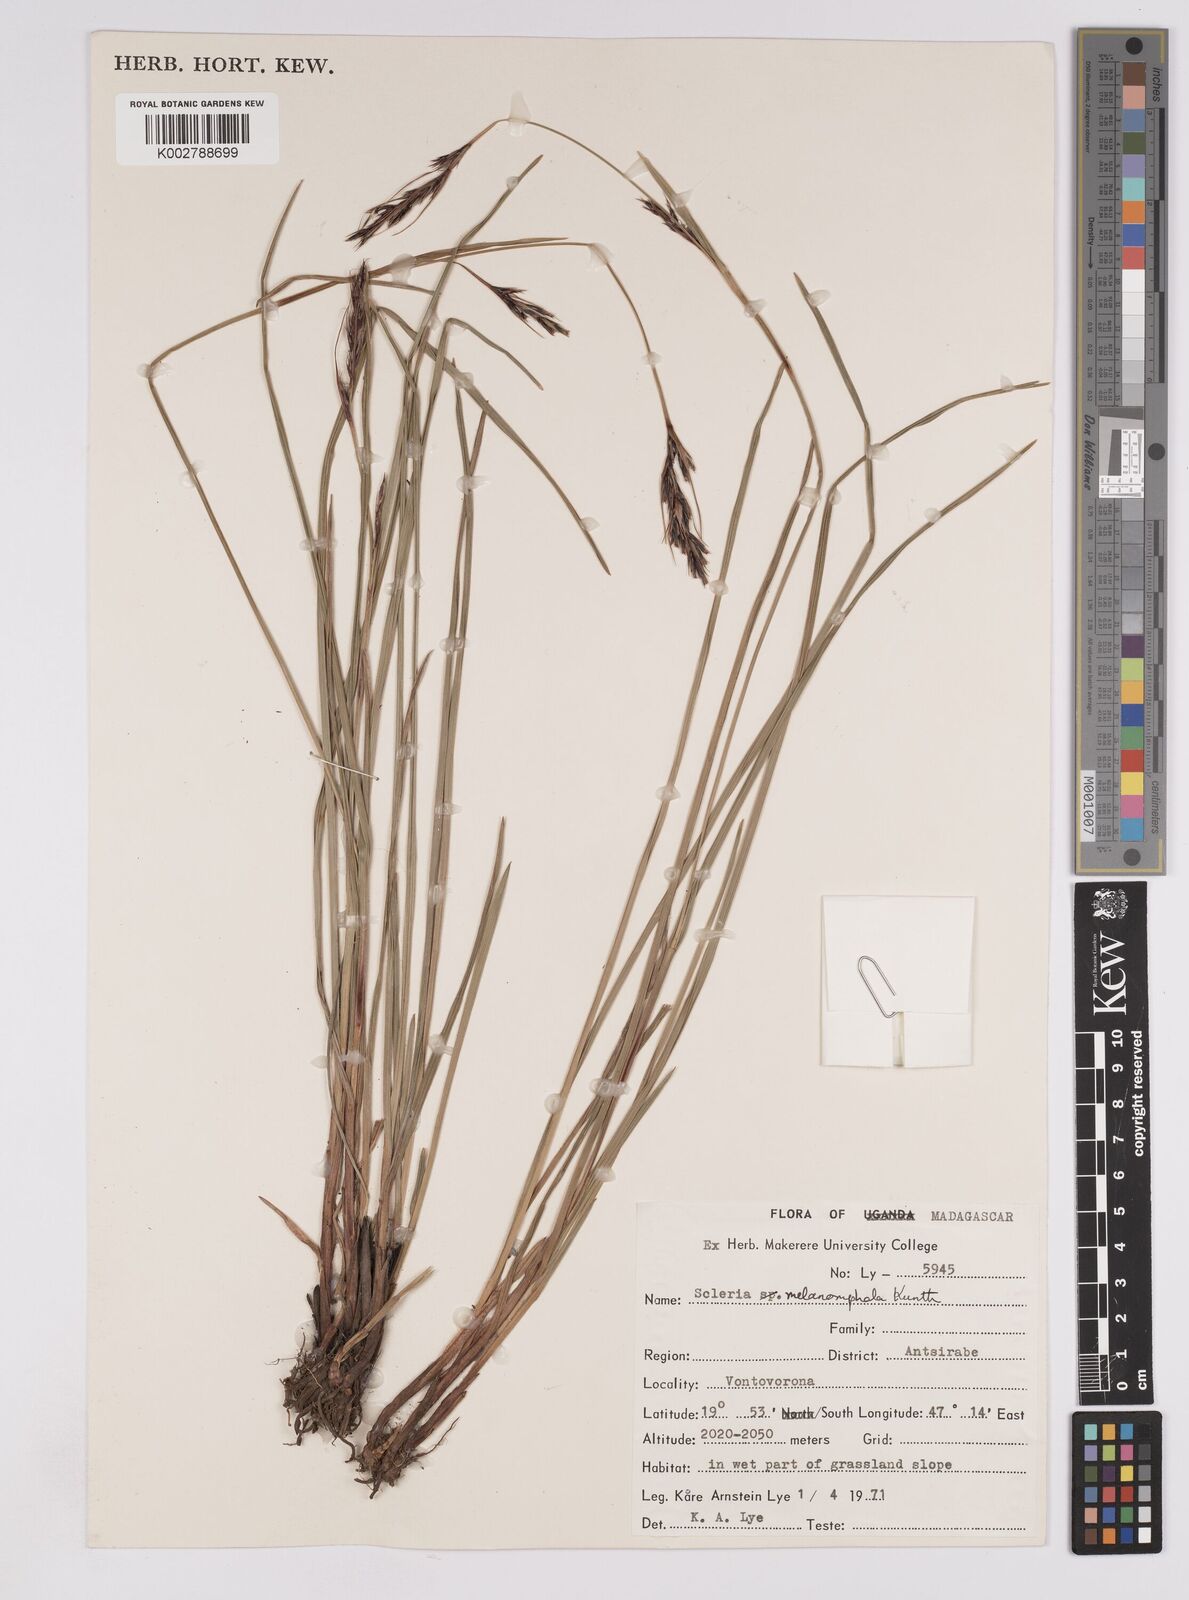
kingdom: Plantae
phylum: Tracheophyta
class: Liliopsida
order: Poales
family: Cyperaceae
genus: Scleria
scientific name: Scleria melanomphala
